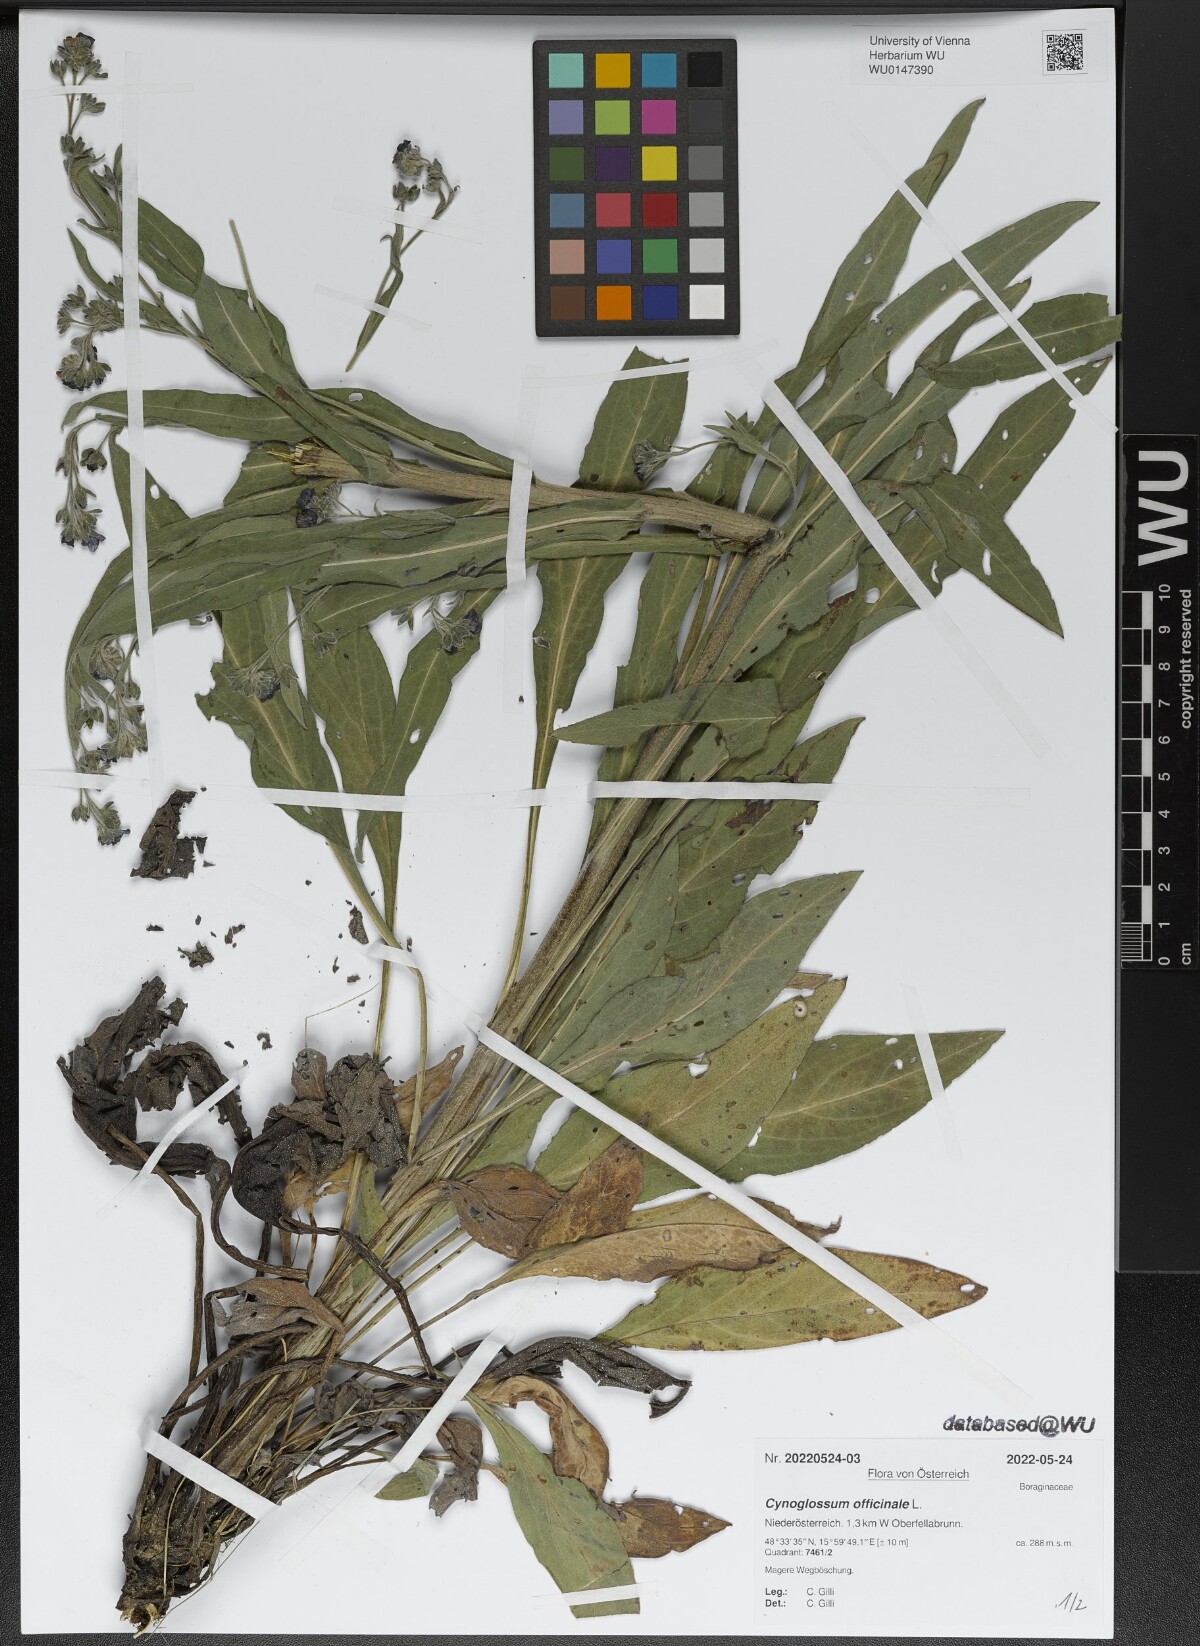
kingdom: Plantae
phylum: Tracheophyta
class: Magnoliopsida
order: Boraginales
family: Boraginaceae
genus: Cynoglossum
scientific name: Cynoglossum officinale
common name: Hound's-tongue
